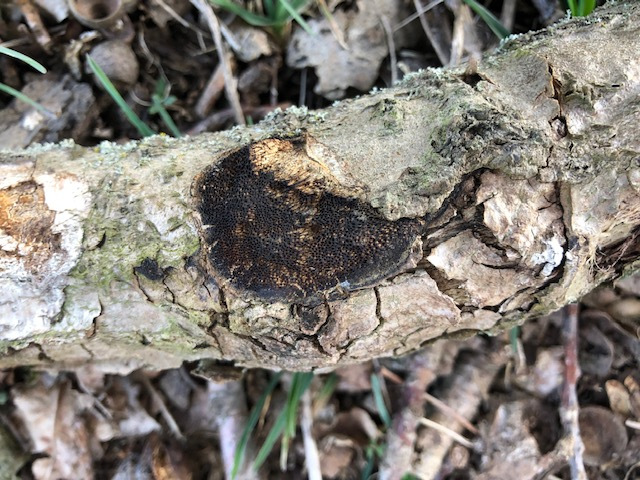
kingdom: Fungi
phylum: Basidiomycota
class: Agaricomycetes
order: Polyporales
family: Polyporaceae
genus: Szczepkamyces
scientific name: Szczepkamyces campestris
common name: hasselporesvamp
